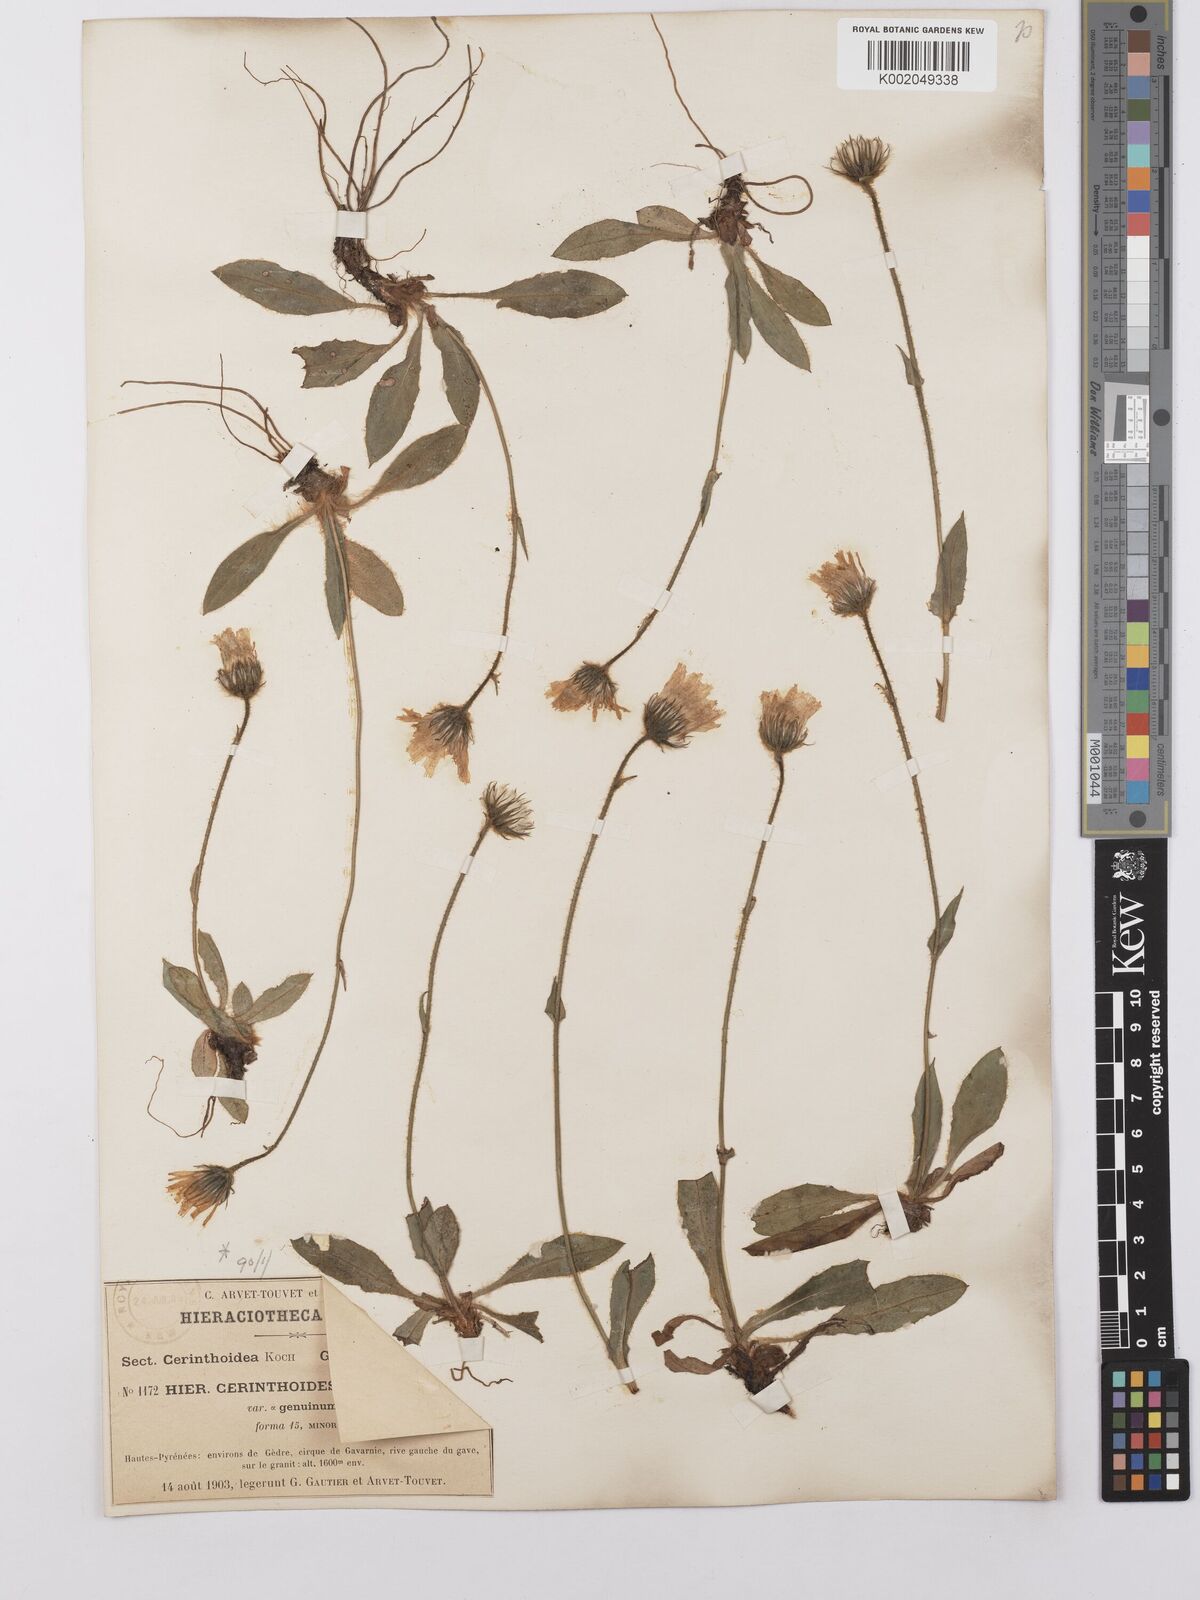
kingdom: Plantae
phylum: Tracheophyta
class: Magnoliopsida
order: Asterales
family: Asteraceae
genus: Hieracium
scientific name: Hieracium cerinthoides
